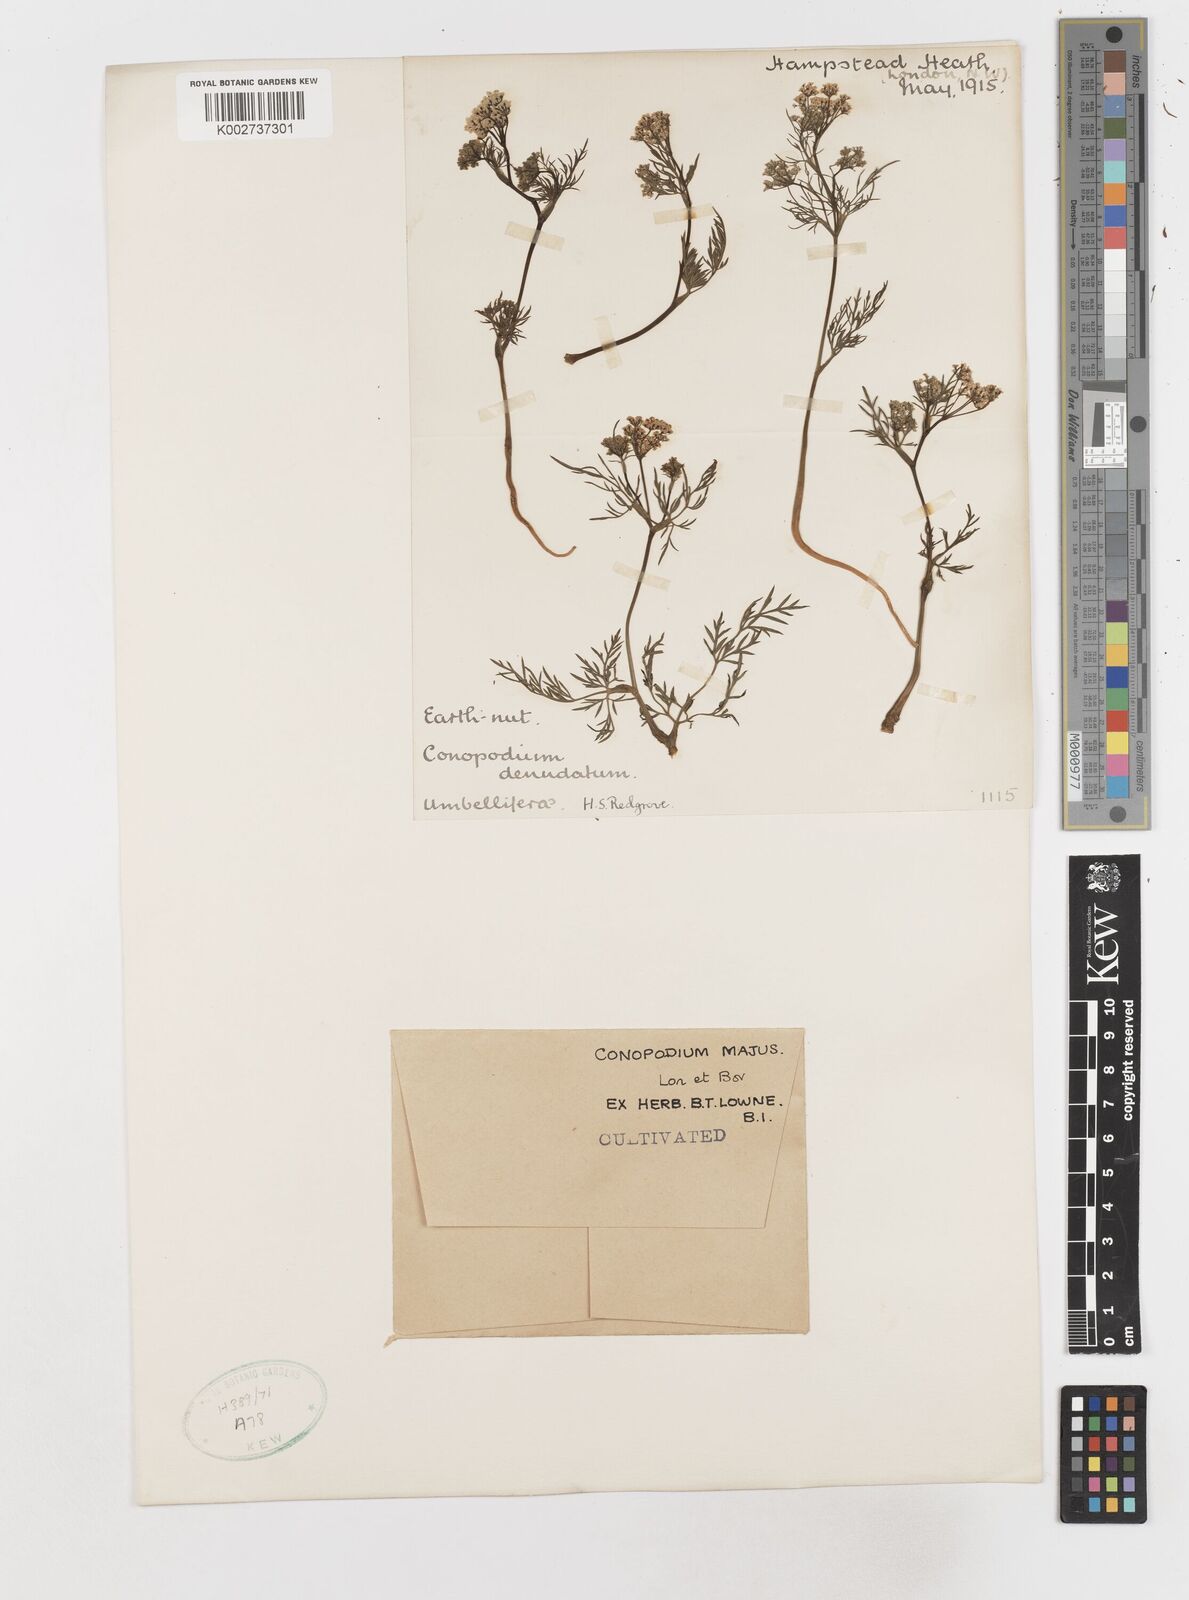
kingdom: Plantae
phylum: Tracheophyta
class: Magnoliopsida
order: Apiales
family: Apiaceae
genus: Conopodium
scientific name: Conopodium
